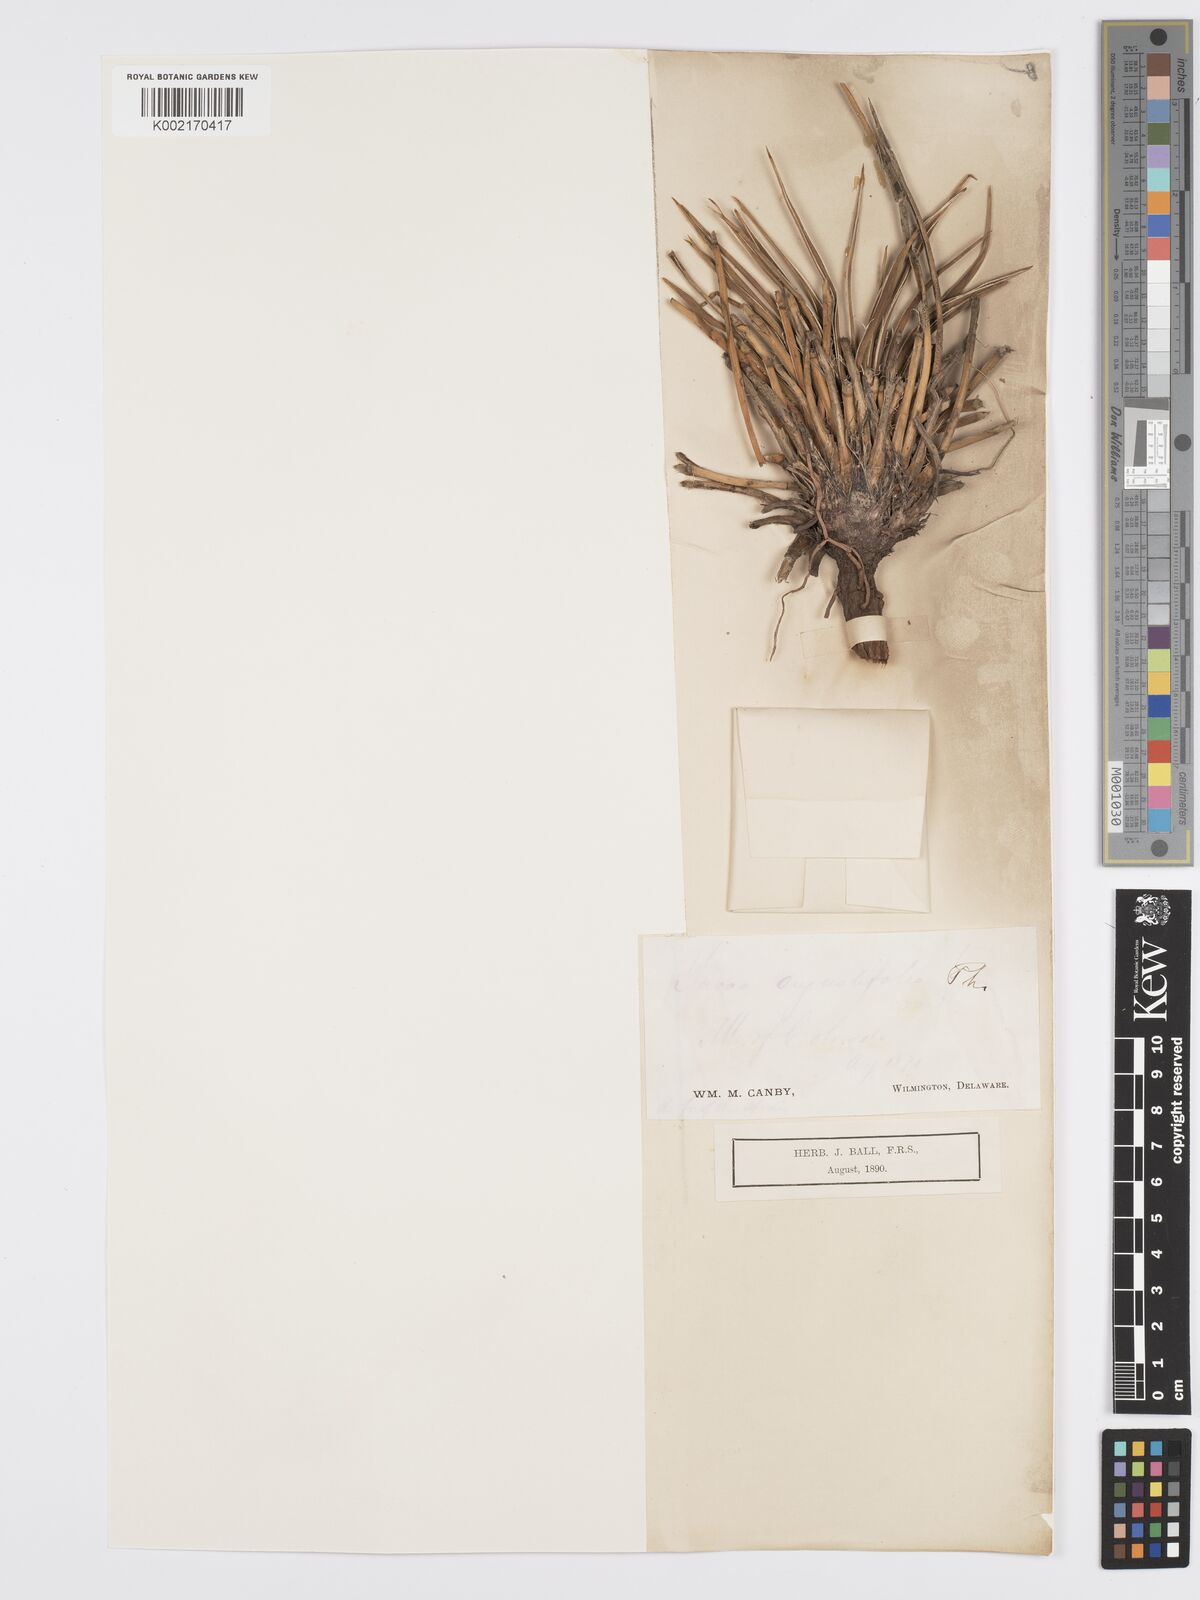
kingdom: Plantae
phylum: Tracheophyta
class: Liliopsida
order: Asparagales
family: Asparagaceae
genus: Yucca
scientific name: Yucca glauca
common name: Great plains yucca
